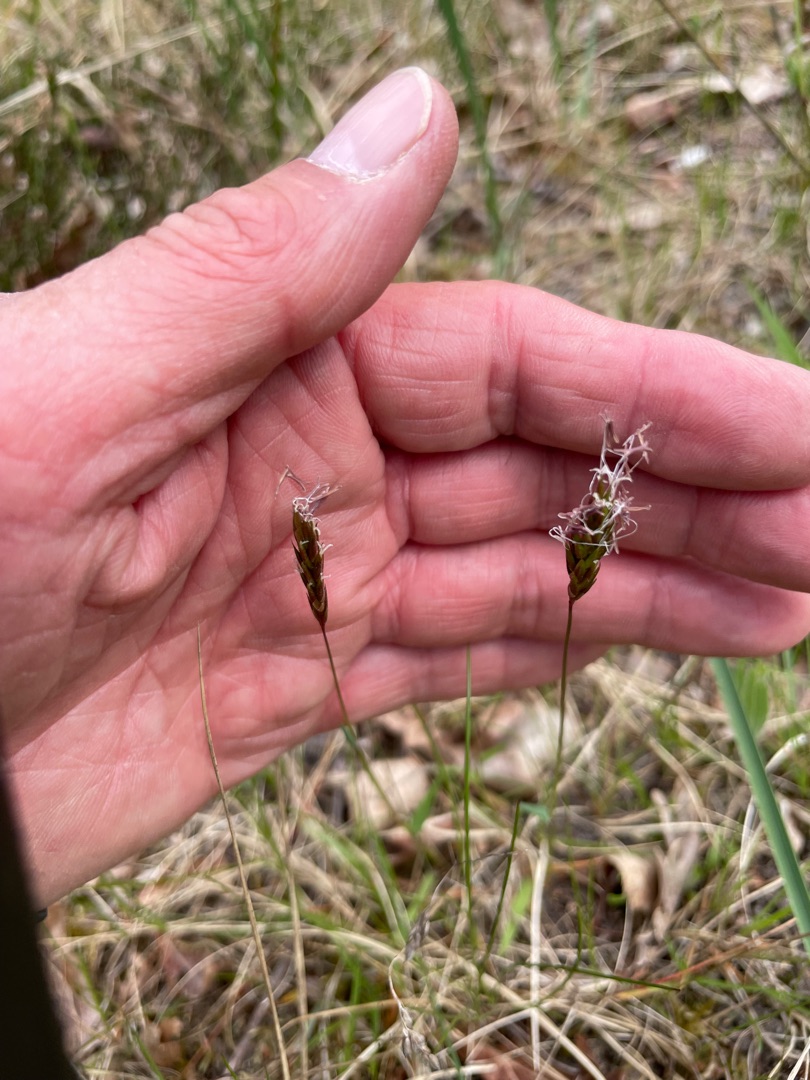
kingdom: Plantae
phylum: Tracheophyta
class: Liliopsida
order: Poales
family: Poaceae
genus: Anthoxanthum
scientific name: Anthoxanthum odoratum
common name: Vellugtende gulaks
